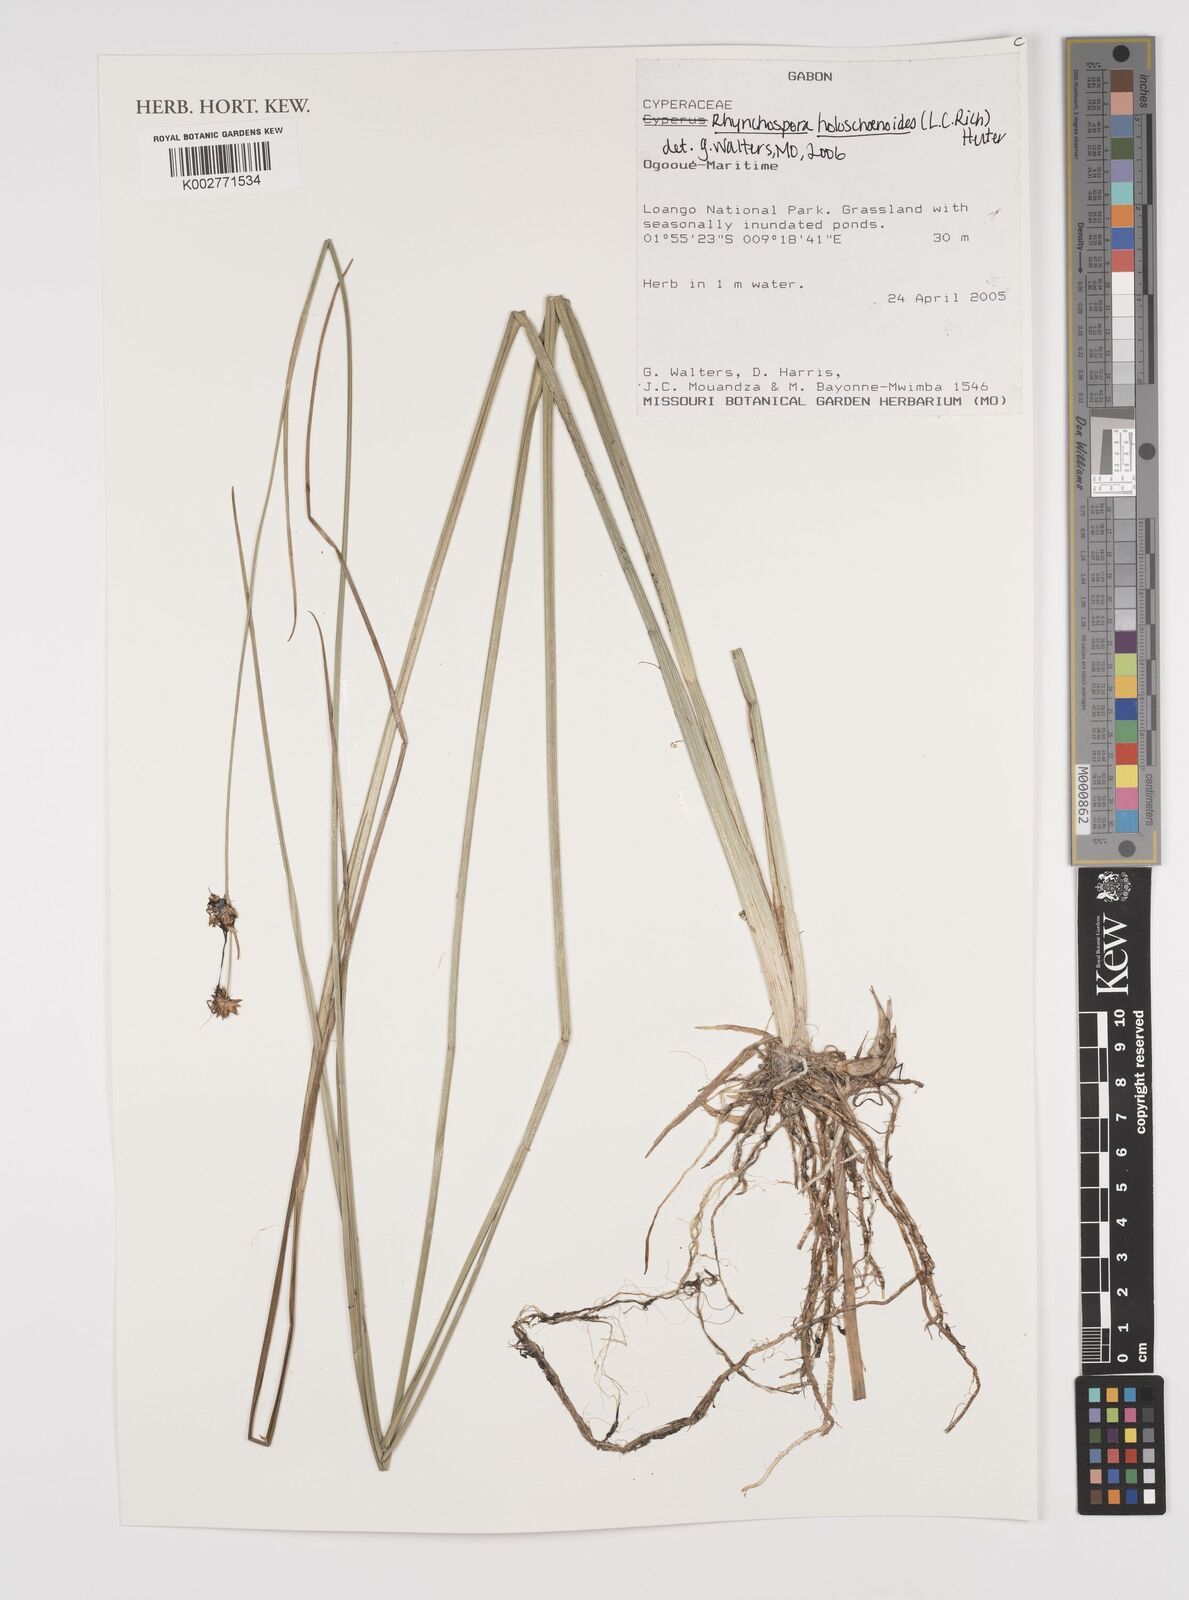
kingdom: Plantae
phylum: Tracheophyta
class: Liliopsida
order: Poales
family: Cyperaceae
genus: Rhynchospora
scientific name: Rhynchospora holoschoenoides
